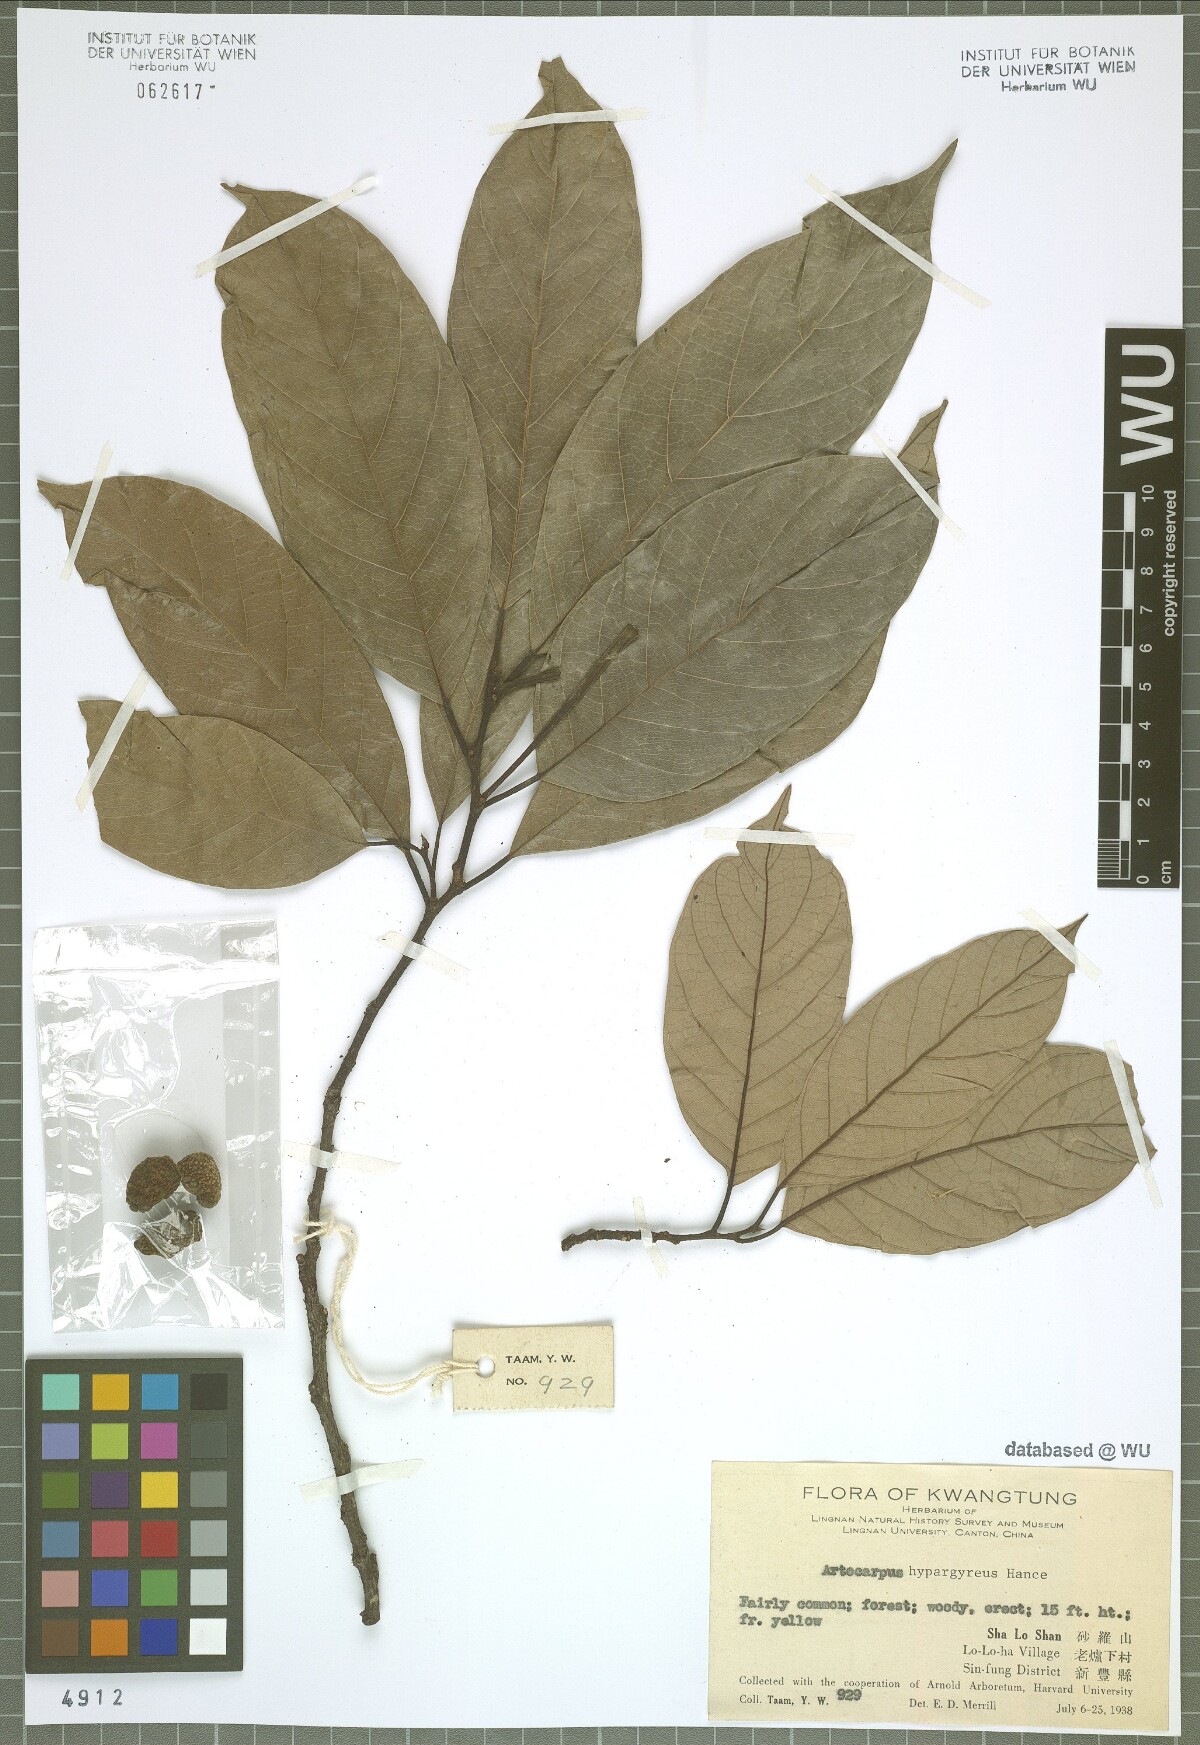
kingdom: Plantae
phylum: Tracheophyta
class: Magnoliopsida
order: Rosales
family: Moraceae
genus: Artocarpus
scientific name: Artocarpus hypargyreus
